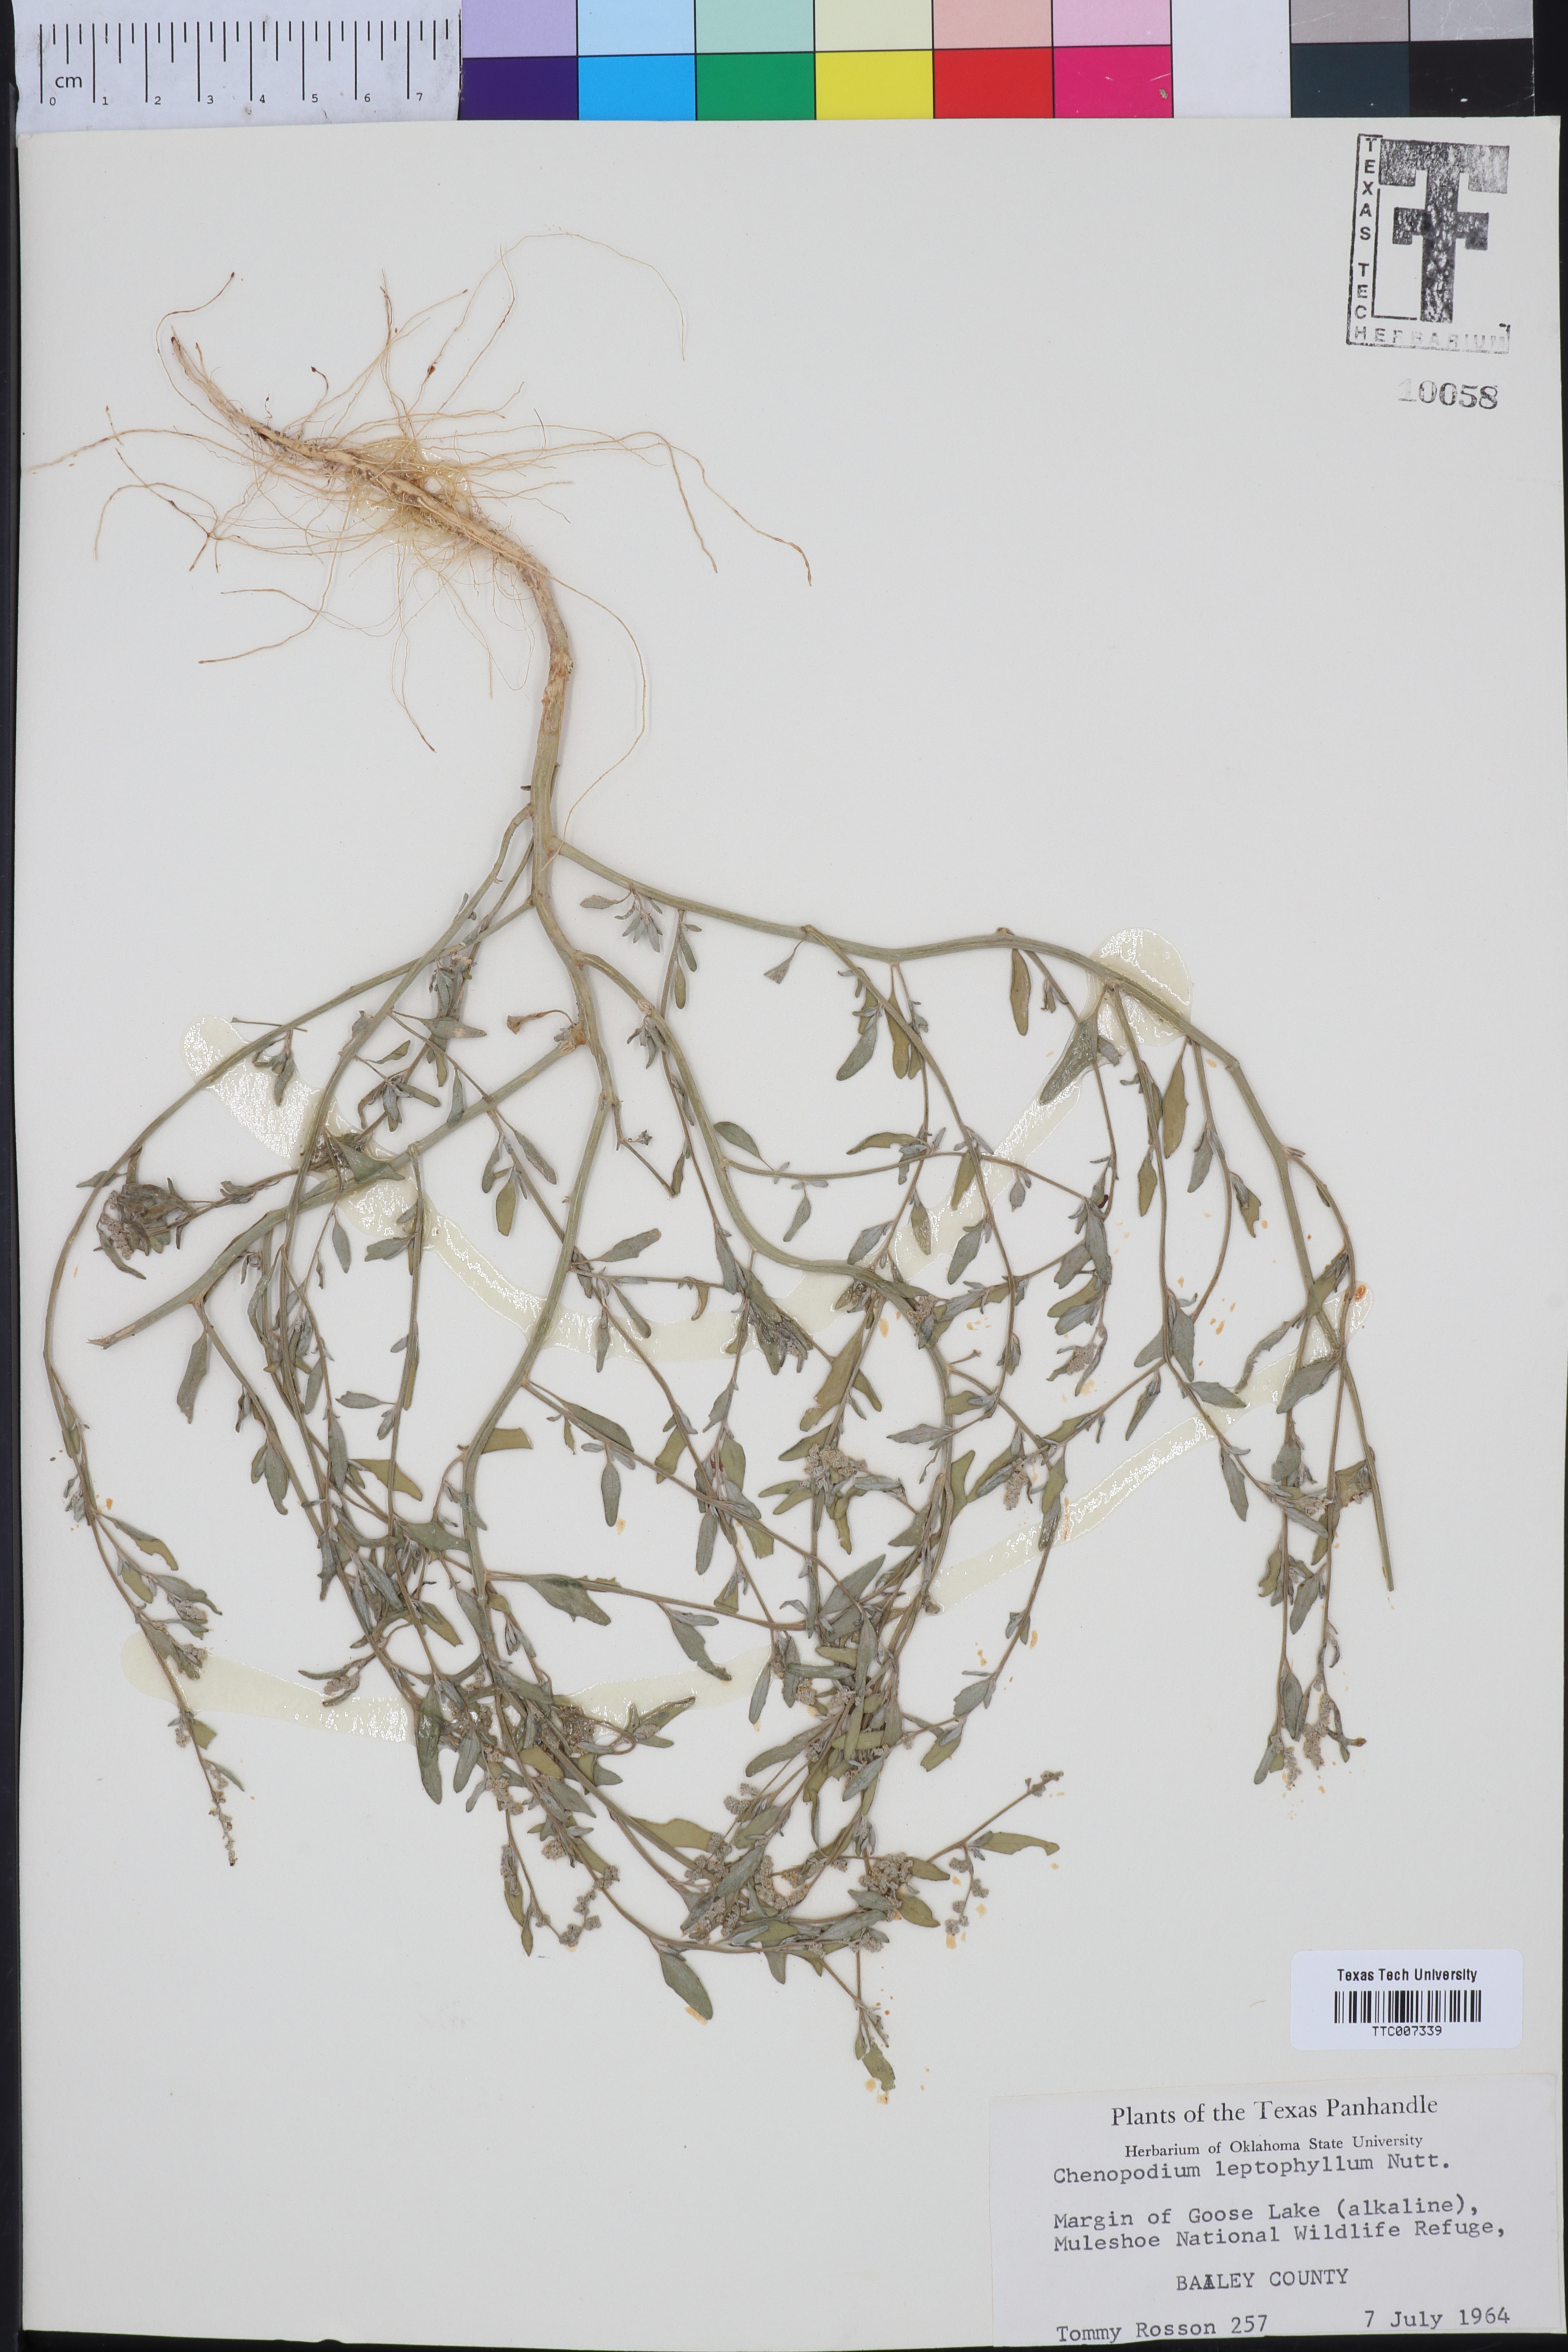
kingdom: Plantae
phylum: Tracheophyta
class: Magnoliopsida
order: Caryophyllales
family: Amaranthaceae
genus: Chenopodium
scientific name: Chenopodium leptophyllum
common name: Narrow-leaf goosefoot
